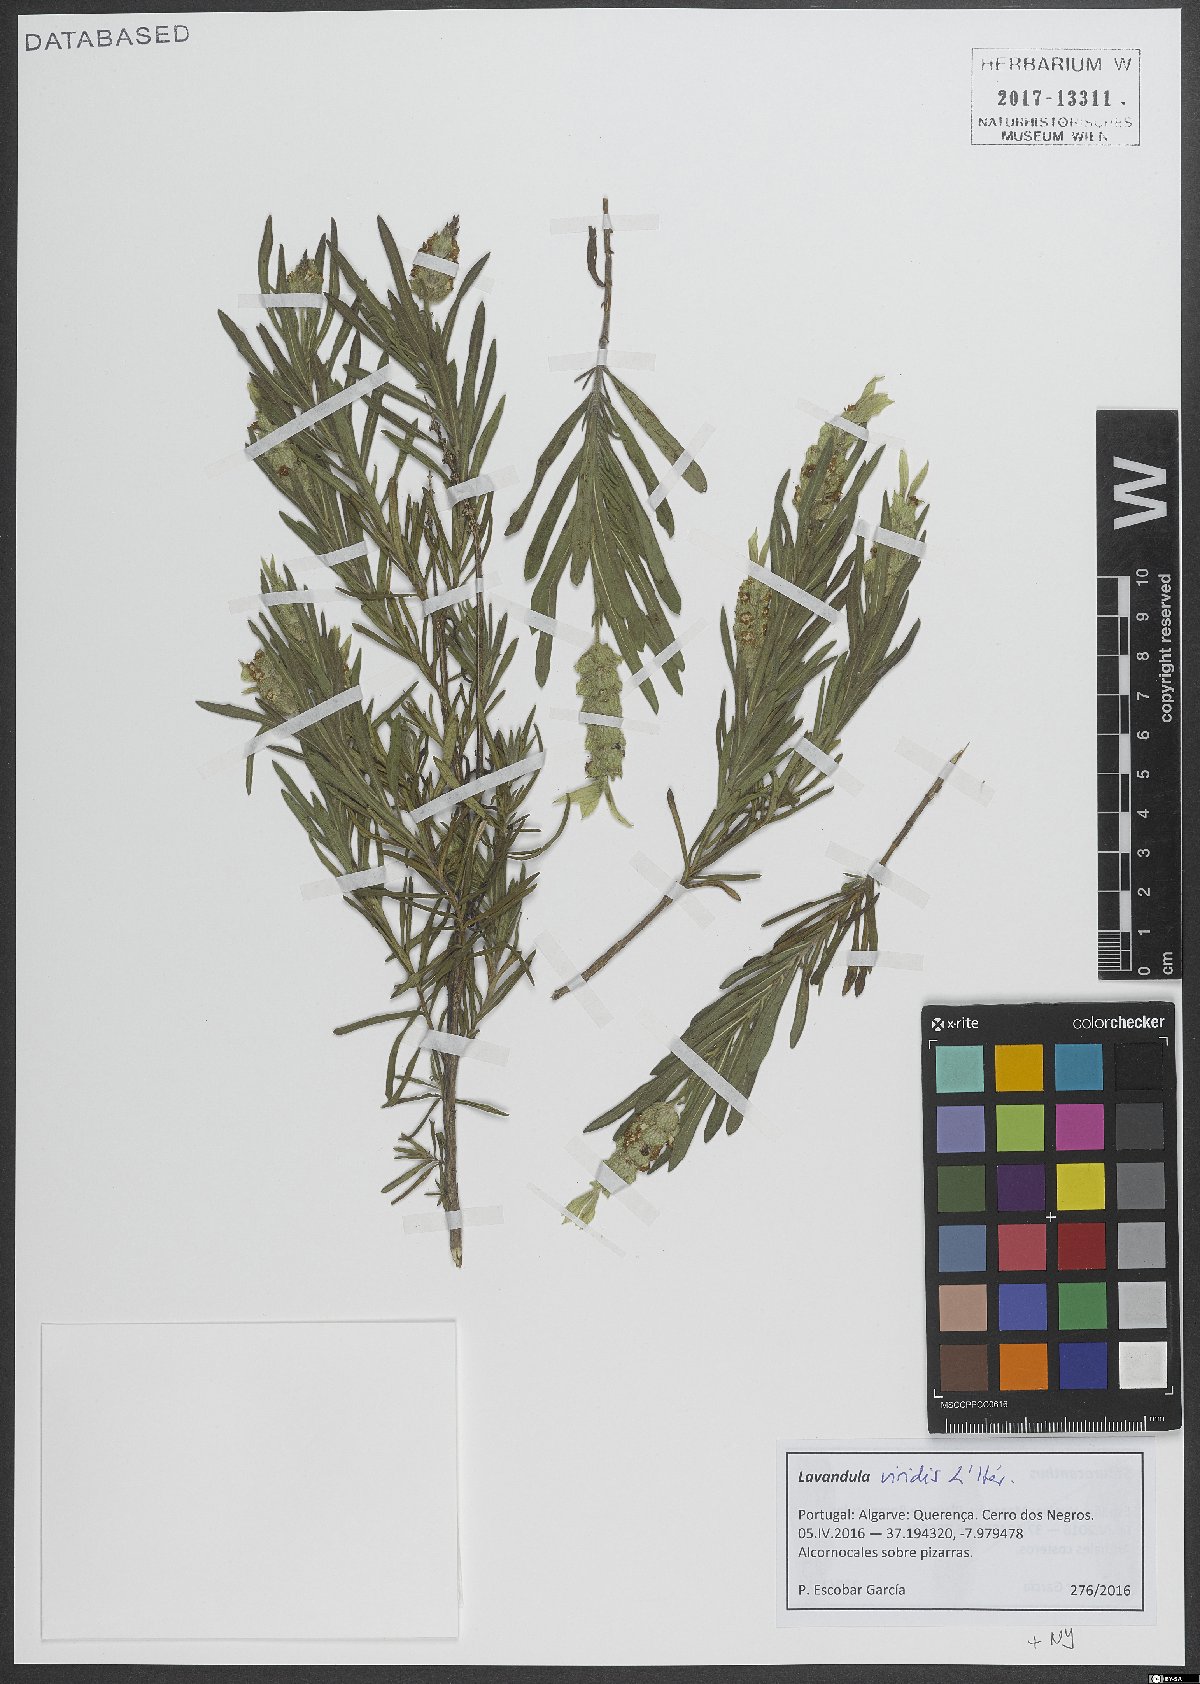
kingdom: Plantae
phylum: Tracheophyta
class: Magnoliopsida
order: Lamiales
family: Lamiaceae
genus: Lavandula
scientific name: Lavandula viridis
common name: Green spanish lavender
